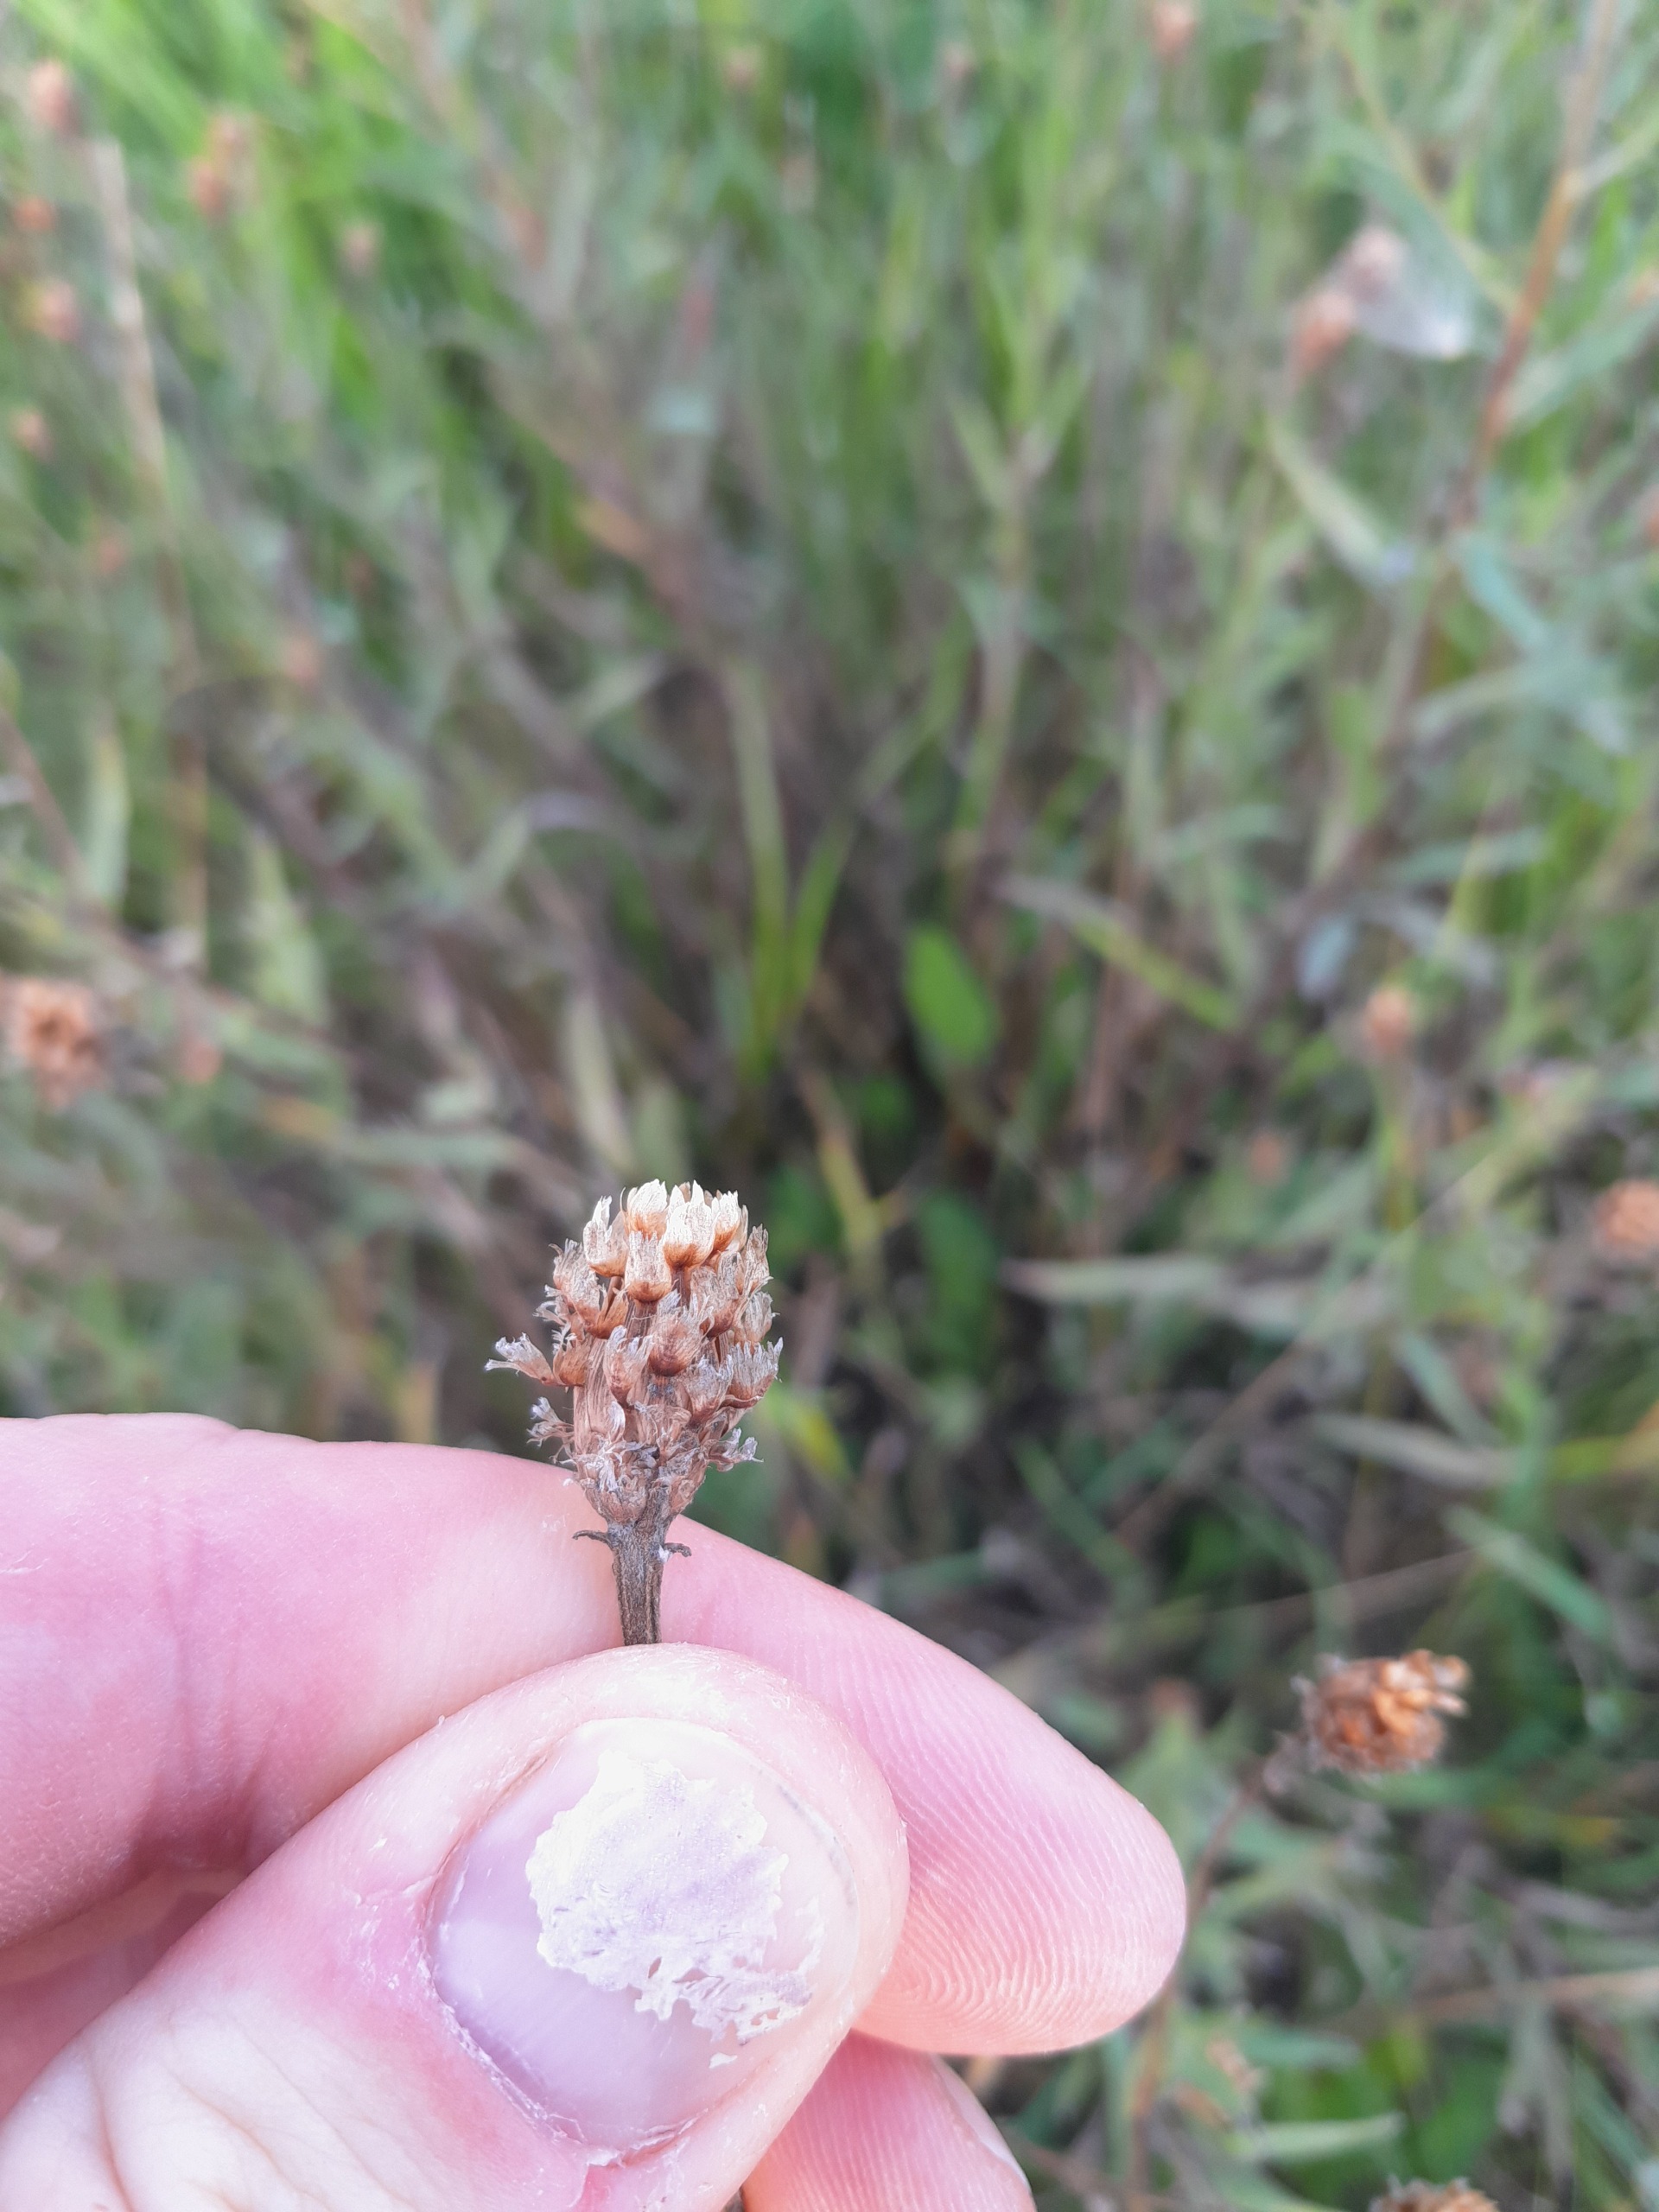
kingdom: Plantae
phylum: Tracheophyta
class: Magnoliopsida
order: Asterales
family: Asteraceae
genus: Centaurea
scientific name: Centaurea jacea
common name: Almindelig knopurt
